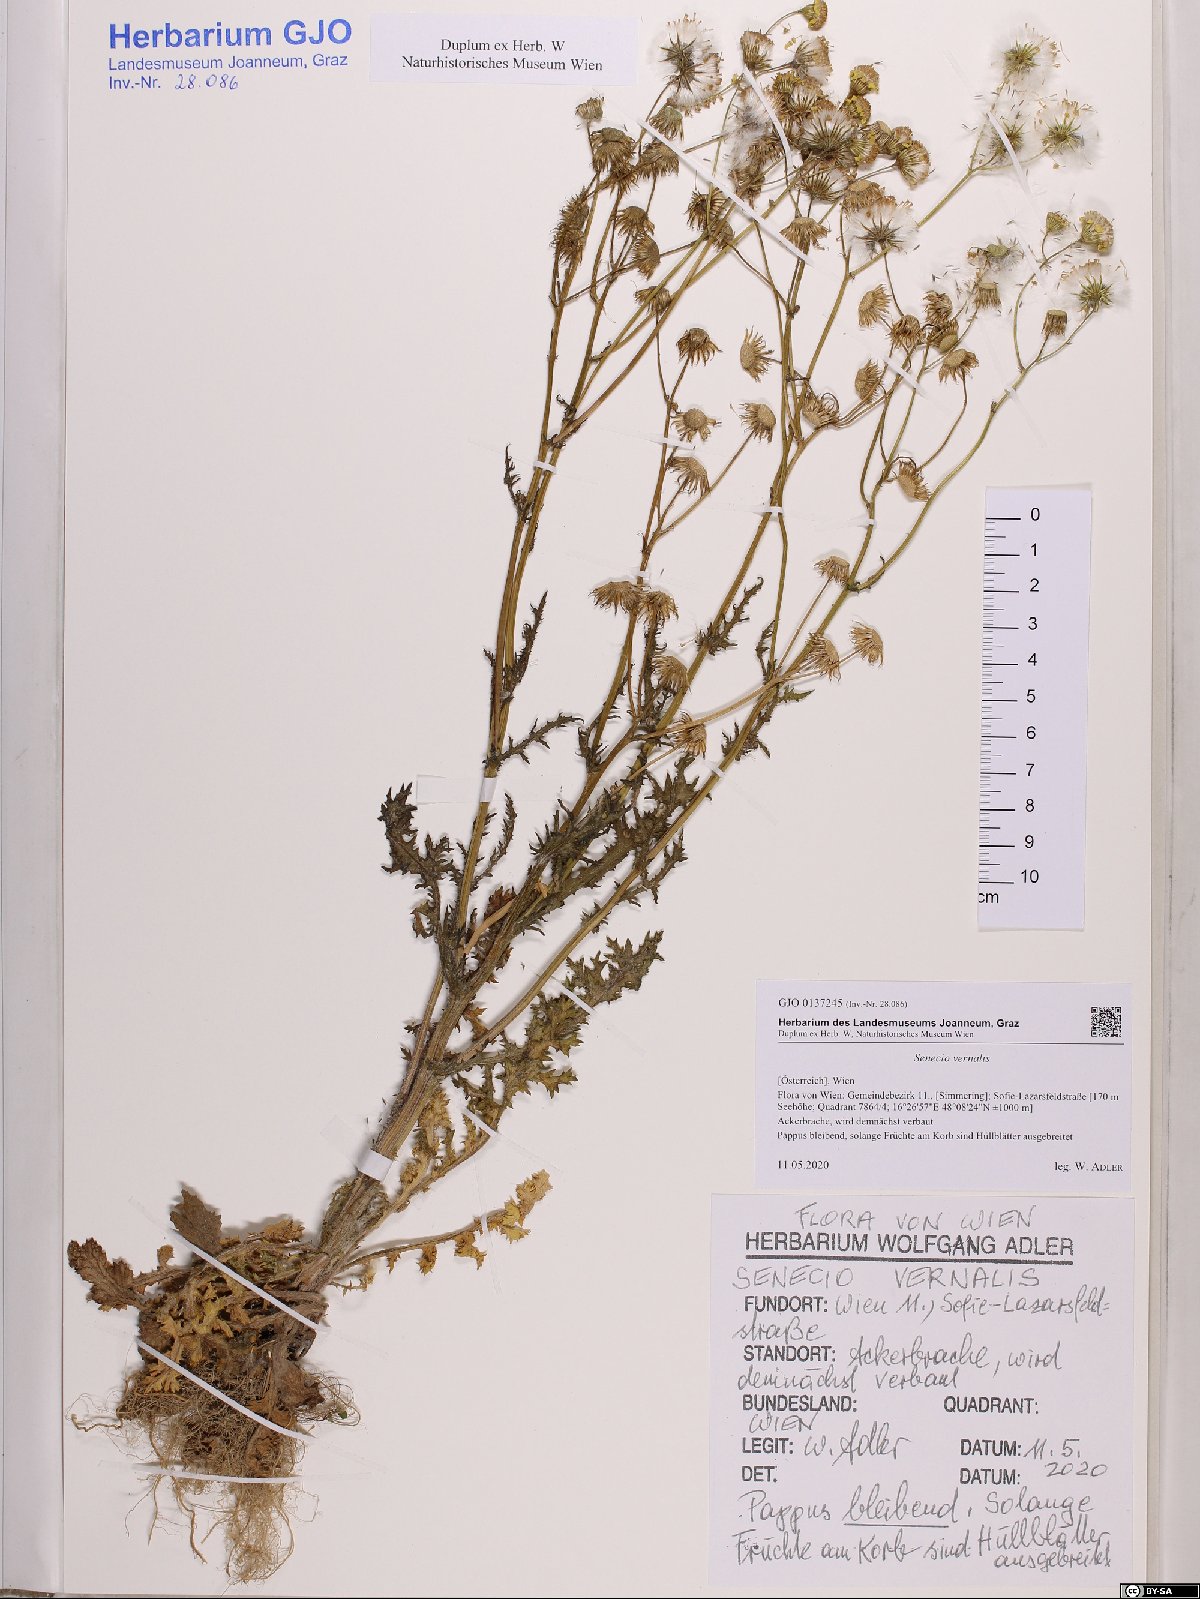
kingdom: Plantae
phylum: Tracheophyta
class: Magnoliopsida
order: Asterales
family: Asteraceae
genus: Senecio
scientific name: Senecio vernalis
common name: Eastern groundsel
